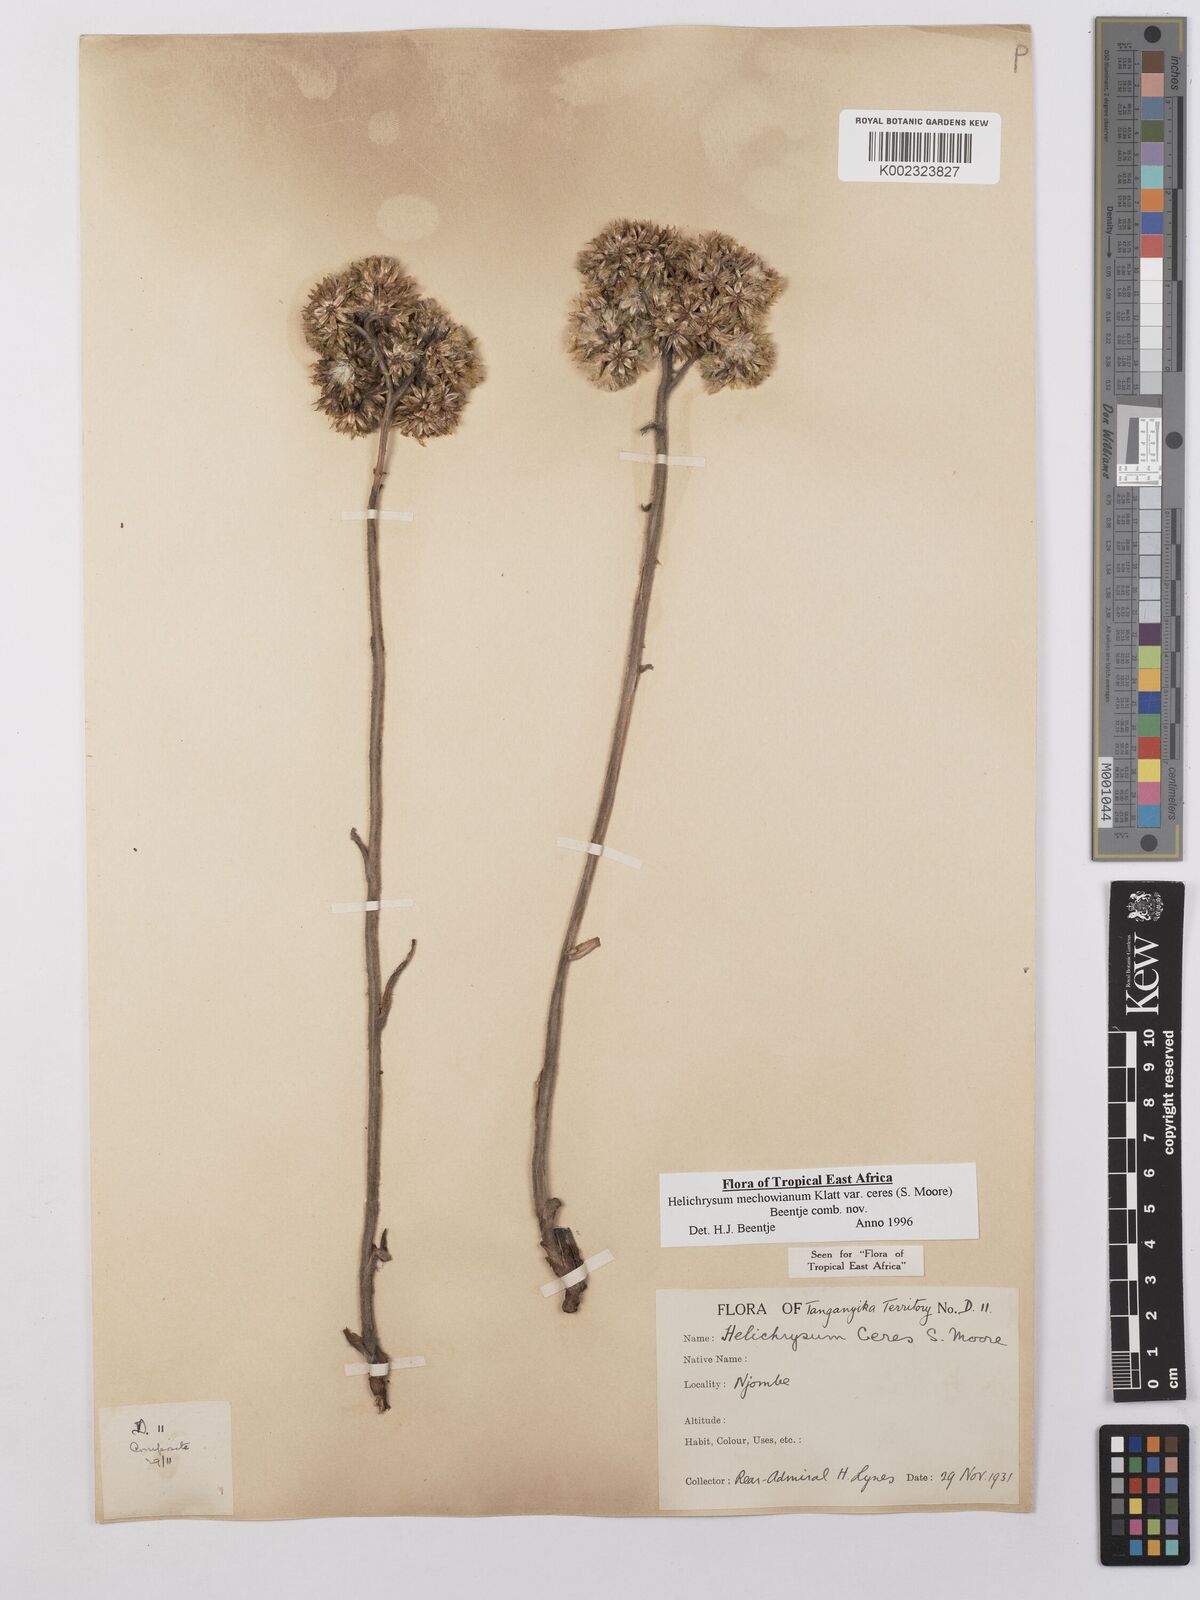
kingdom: Plantae
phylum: Tracheophyta
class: Magnoliopsida
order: Asterales
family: Asteraceae
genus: Helichrysum
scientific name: Helichrysum mechowianum
